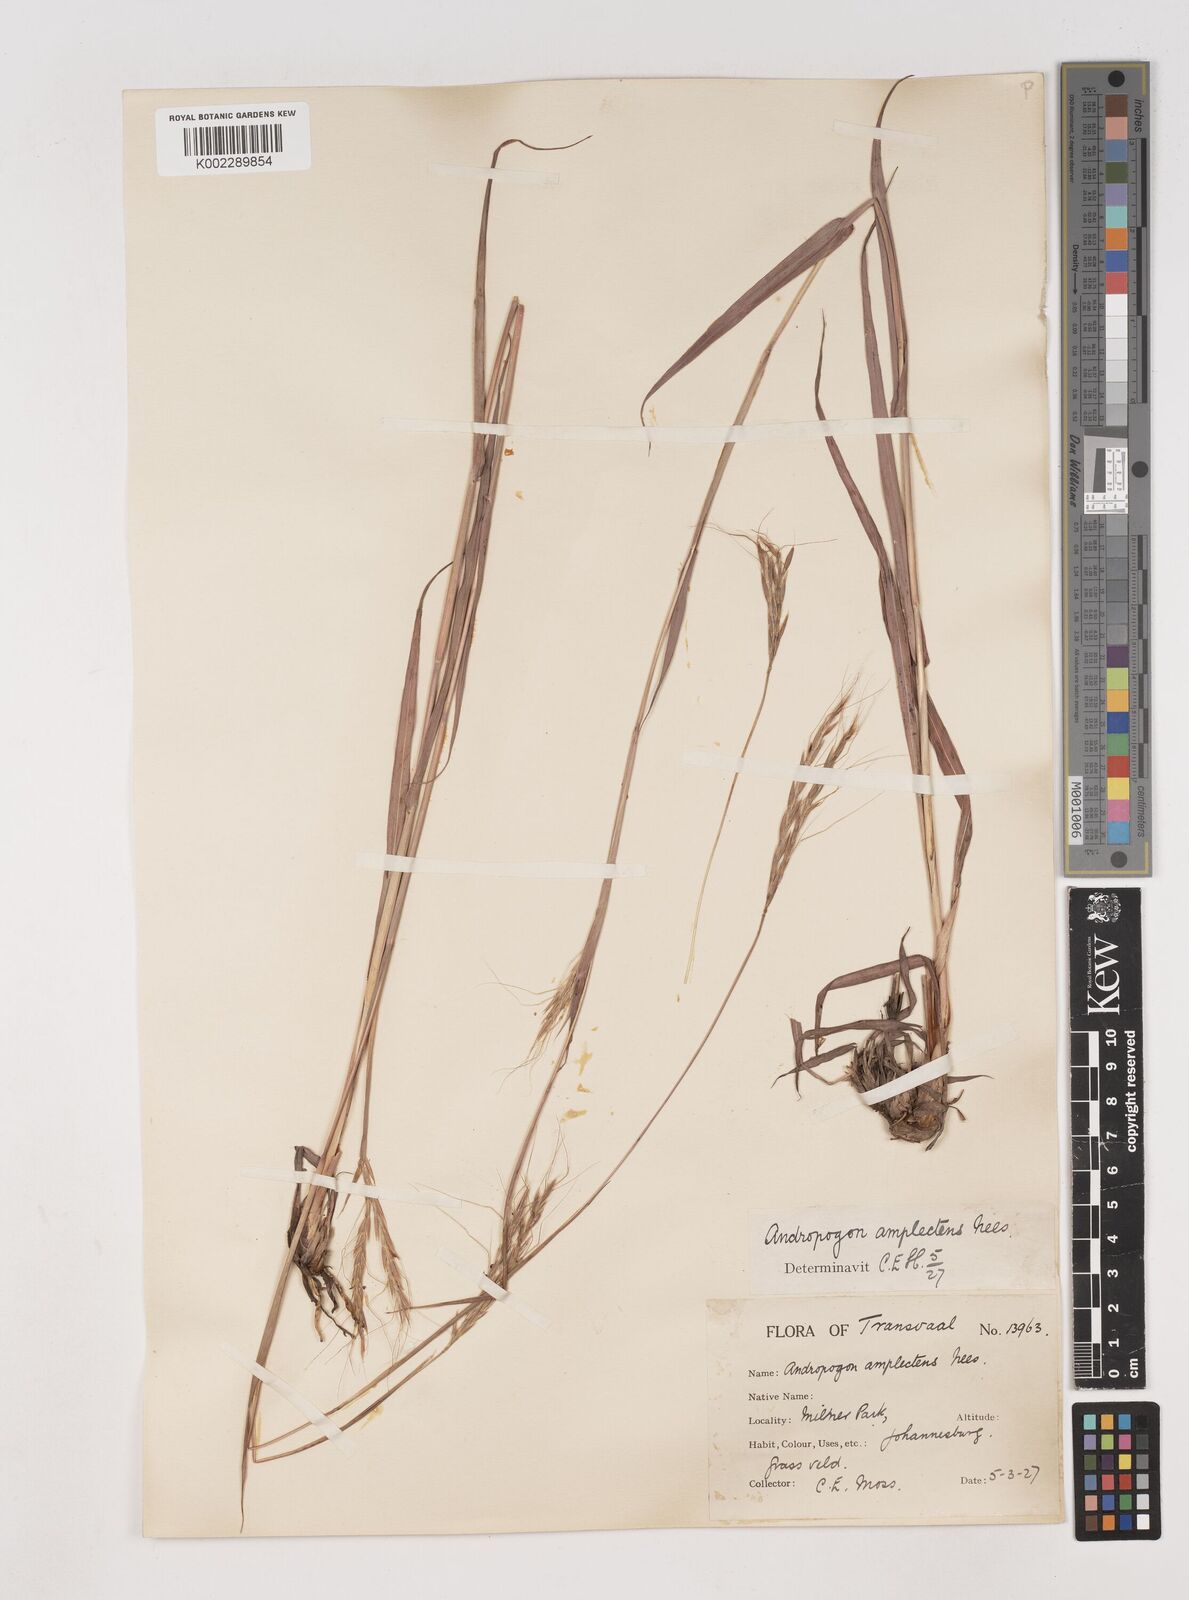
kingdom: Plantae
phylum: Tracheophyta
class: Liliopsida
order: Poales
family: Poaceae
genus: Diheteropogon
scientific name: Diheteropogon amplectens
